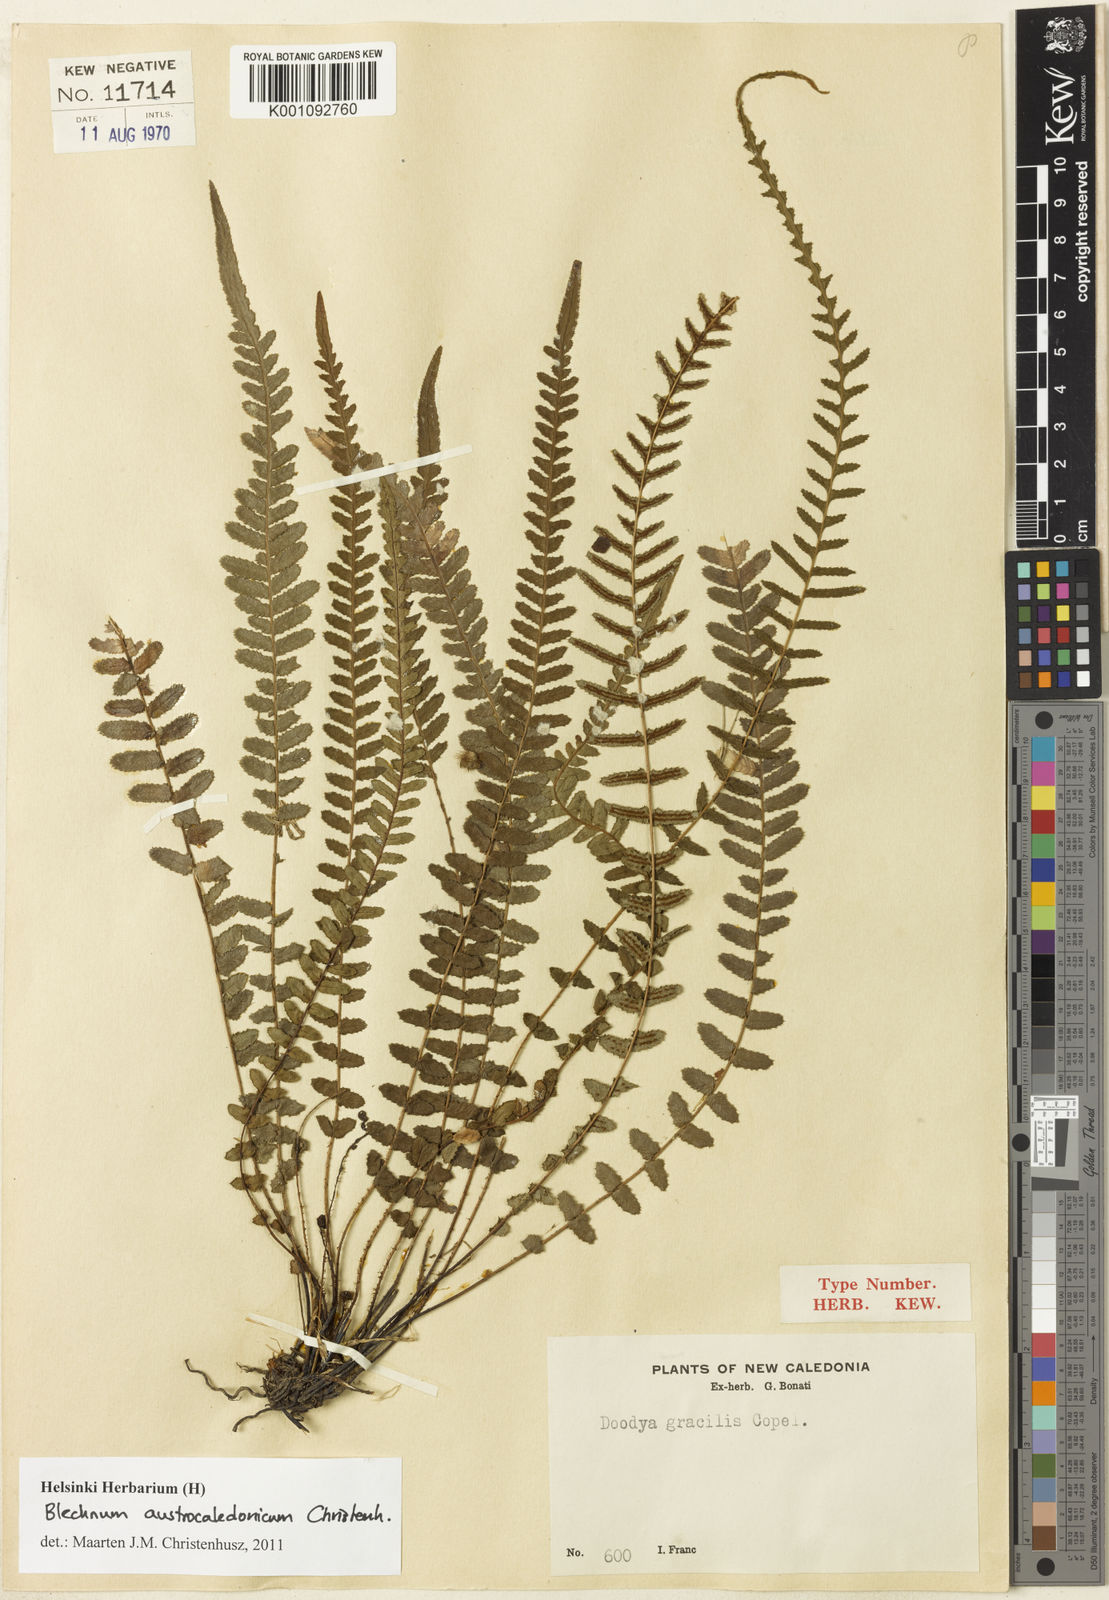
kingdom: Plantae
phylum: Tracheophyta
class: Polypodiopsida
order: Polypodiales
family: Blechnaceae
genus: Doodia
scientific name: Doodia gracilis
